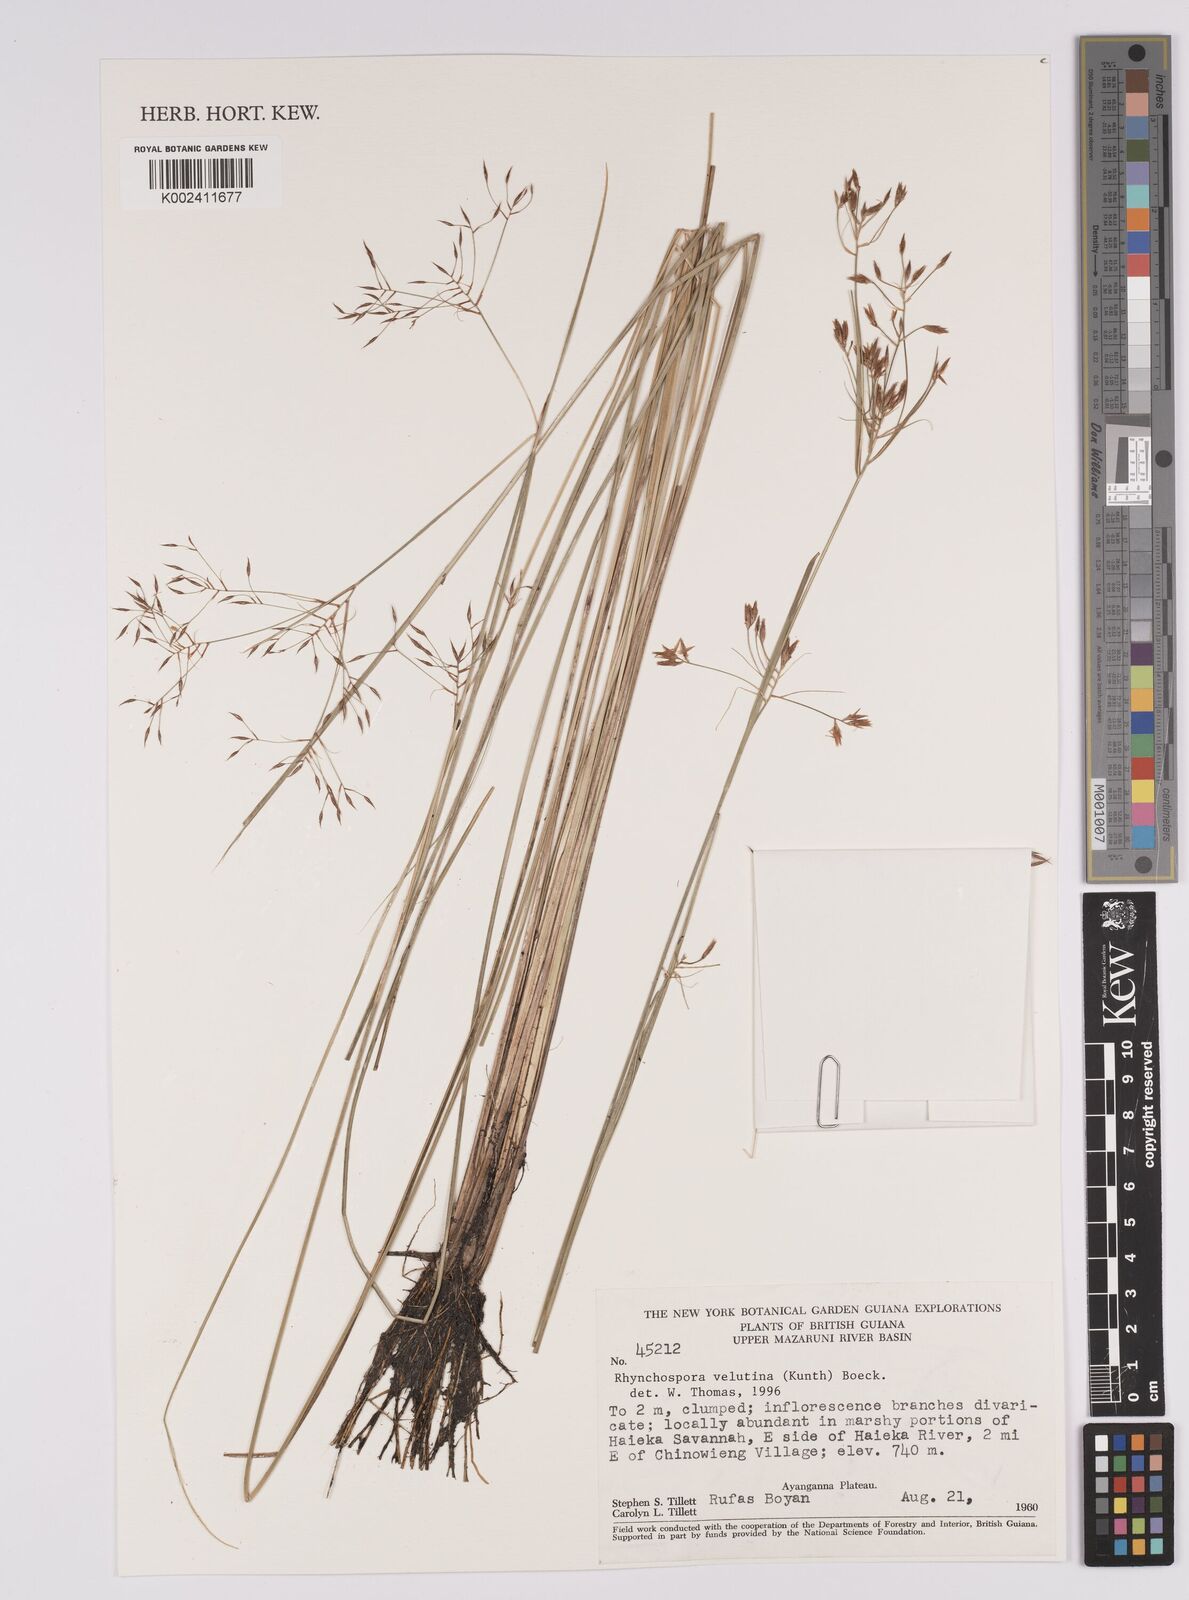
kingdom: Plantae
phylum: Tracheophyta
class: Liliopsida
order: Poales
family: Cyperaceae
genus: Rhynchospora
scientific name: Rhynchospora velutina
